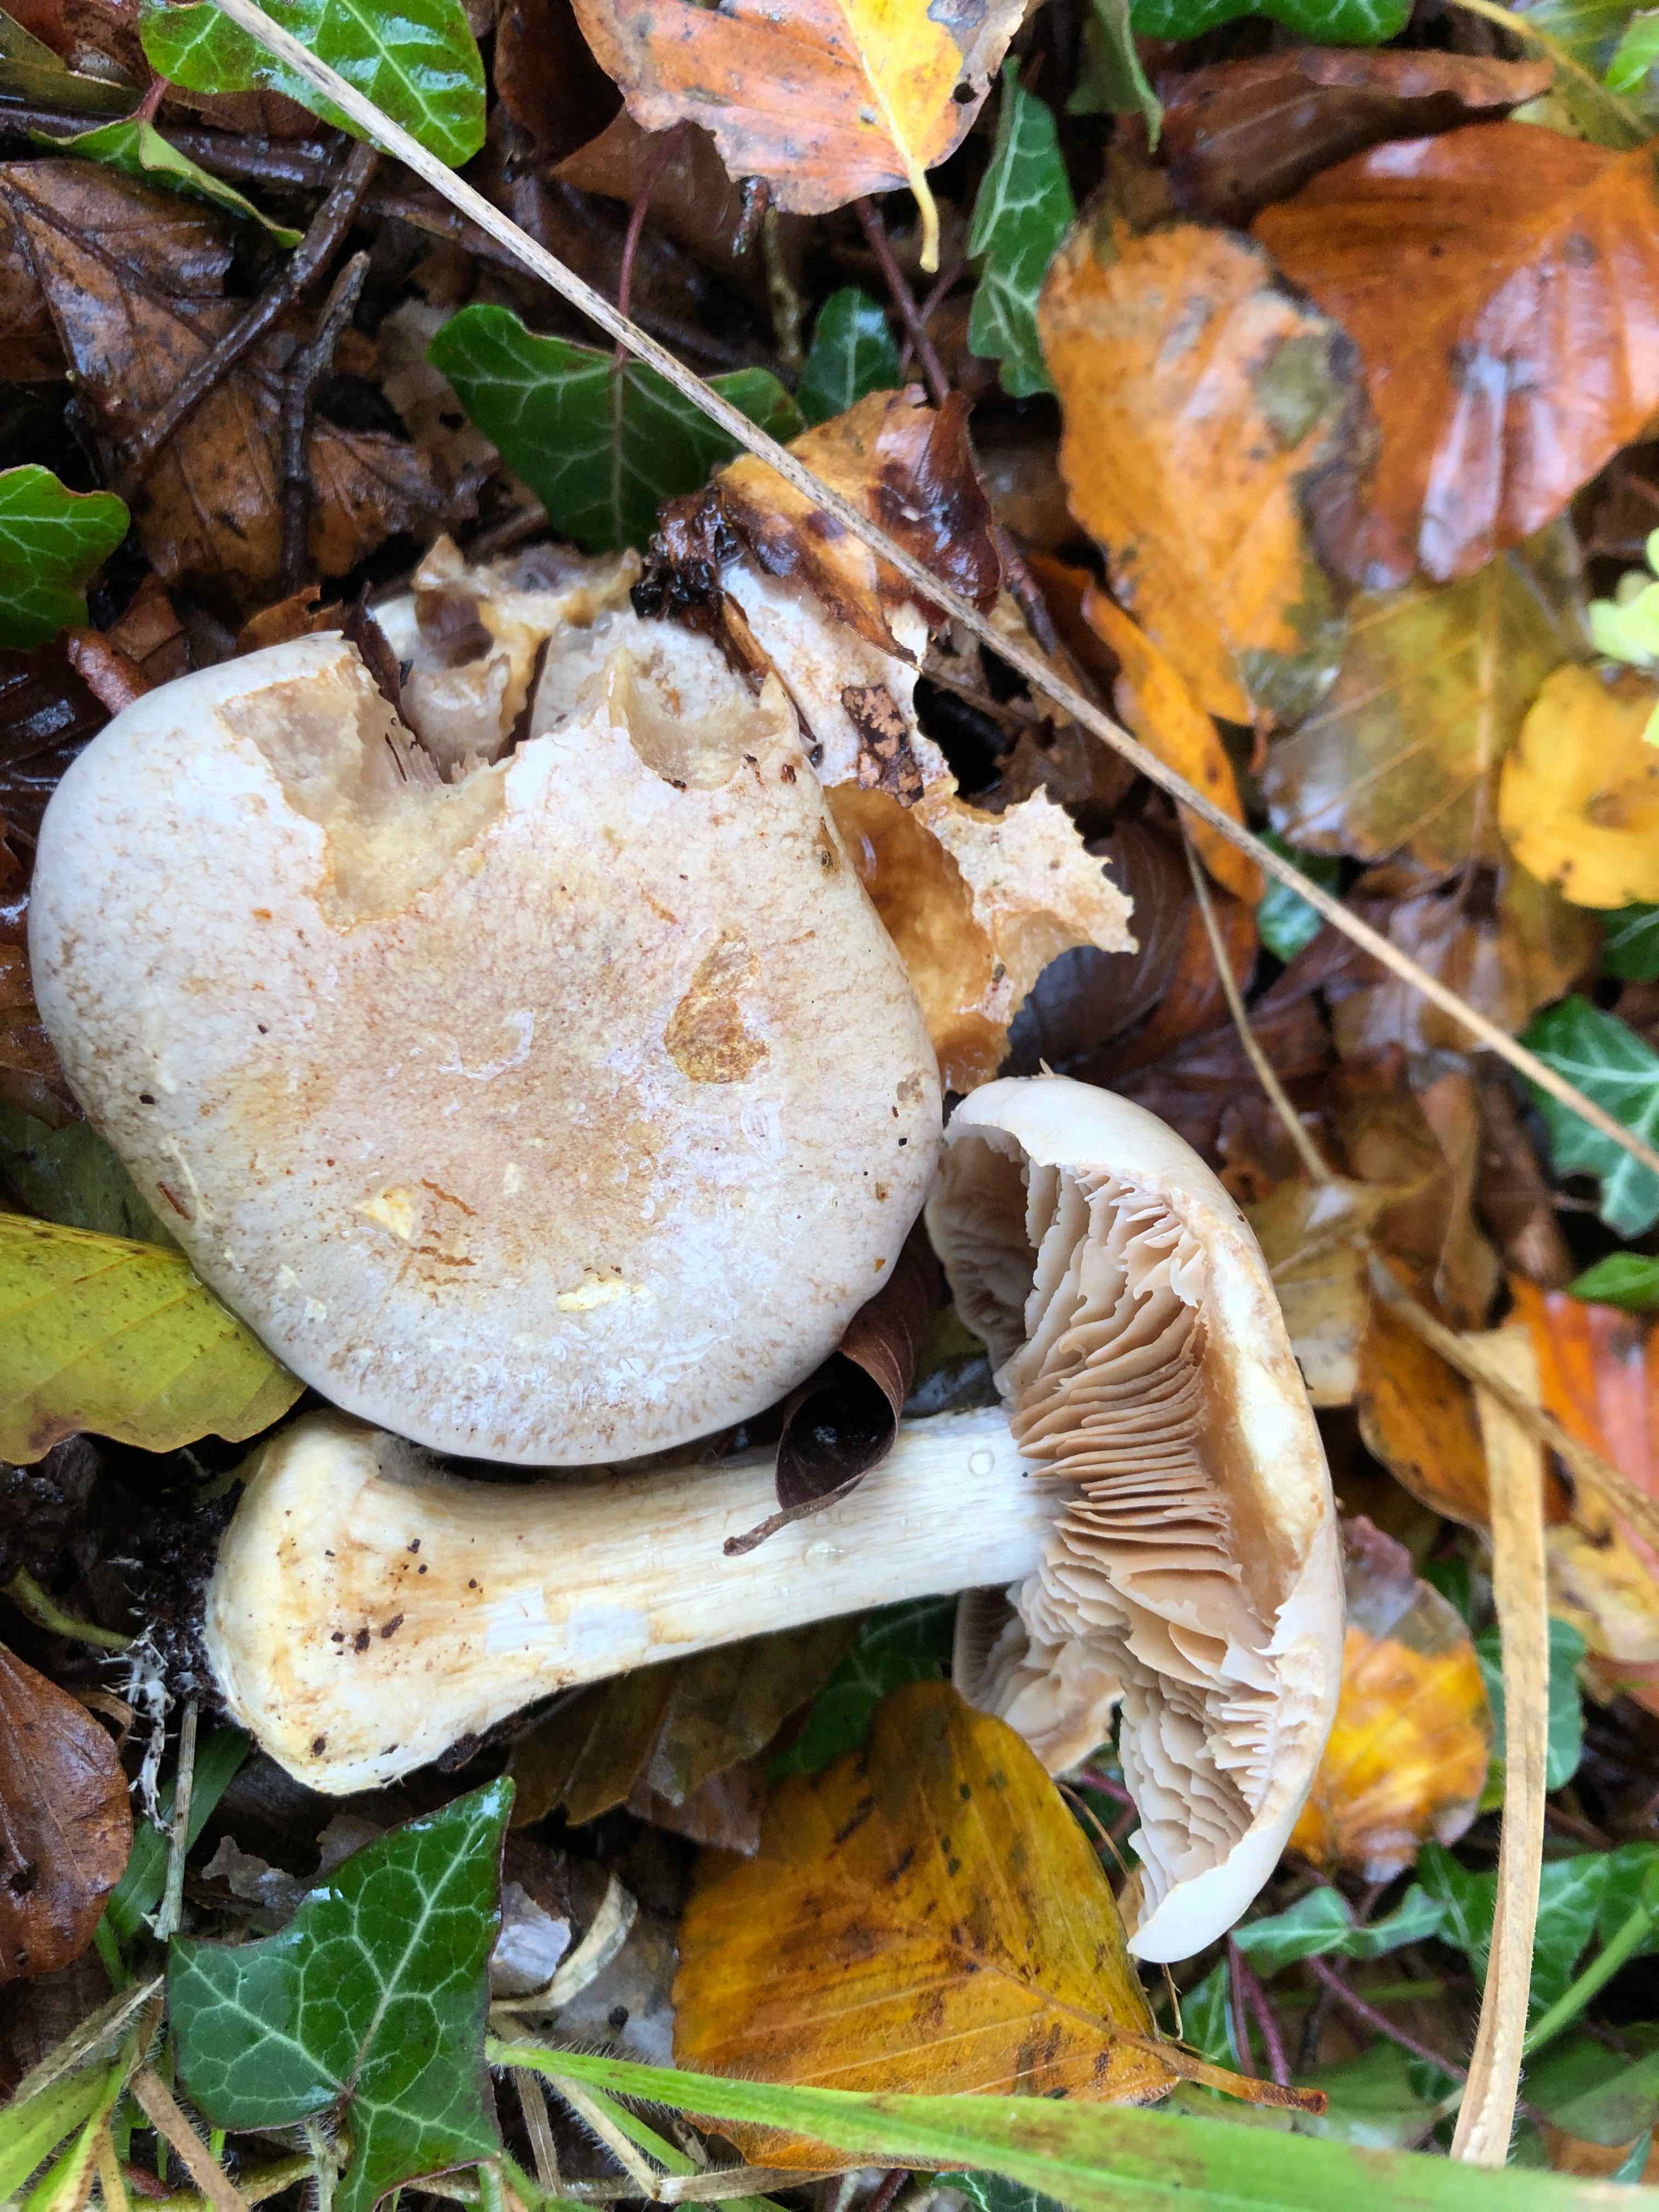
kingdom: Fungi
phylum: Basidiomycota
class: Agaricomycetes
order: Agaricales
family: Cortinariaceae
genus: Cortinarius
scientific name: Cortinarius foetens
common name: stribet slørhat
